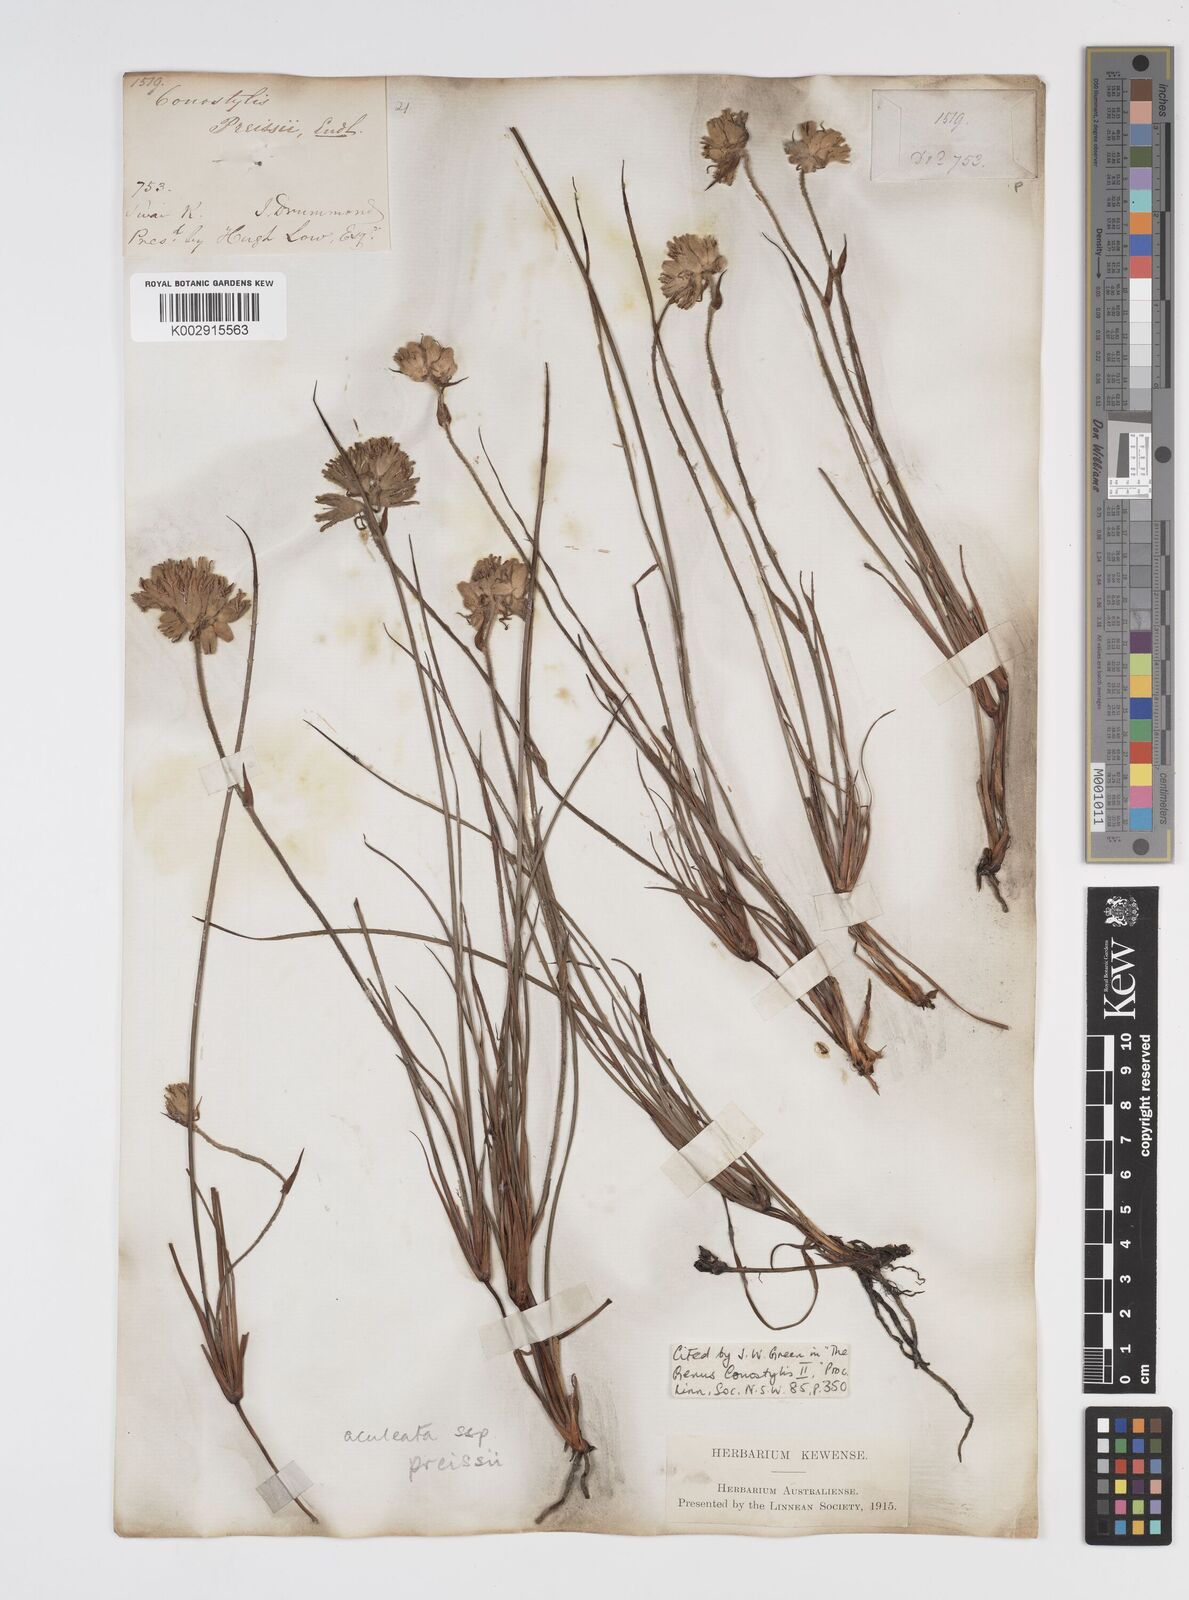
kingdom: Plantae
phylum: Tracheophyta
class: Liliopsida
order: Commelinales
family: Haemodoraceae
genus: Conostylis
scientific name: Conostylis aculeata
